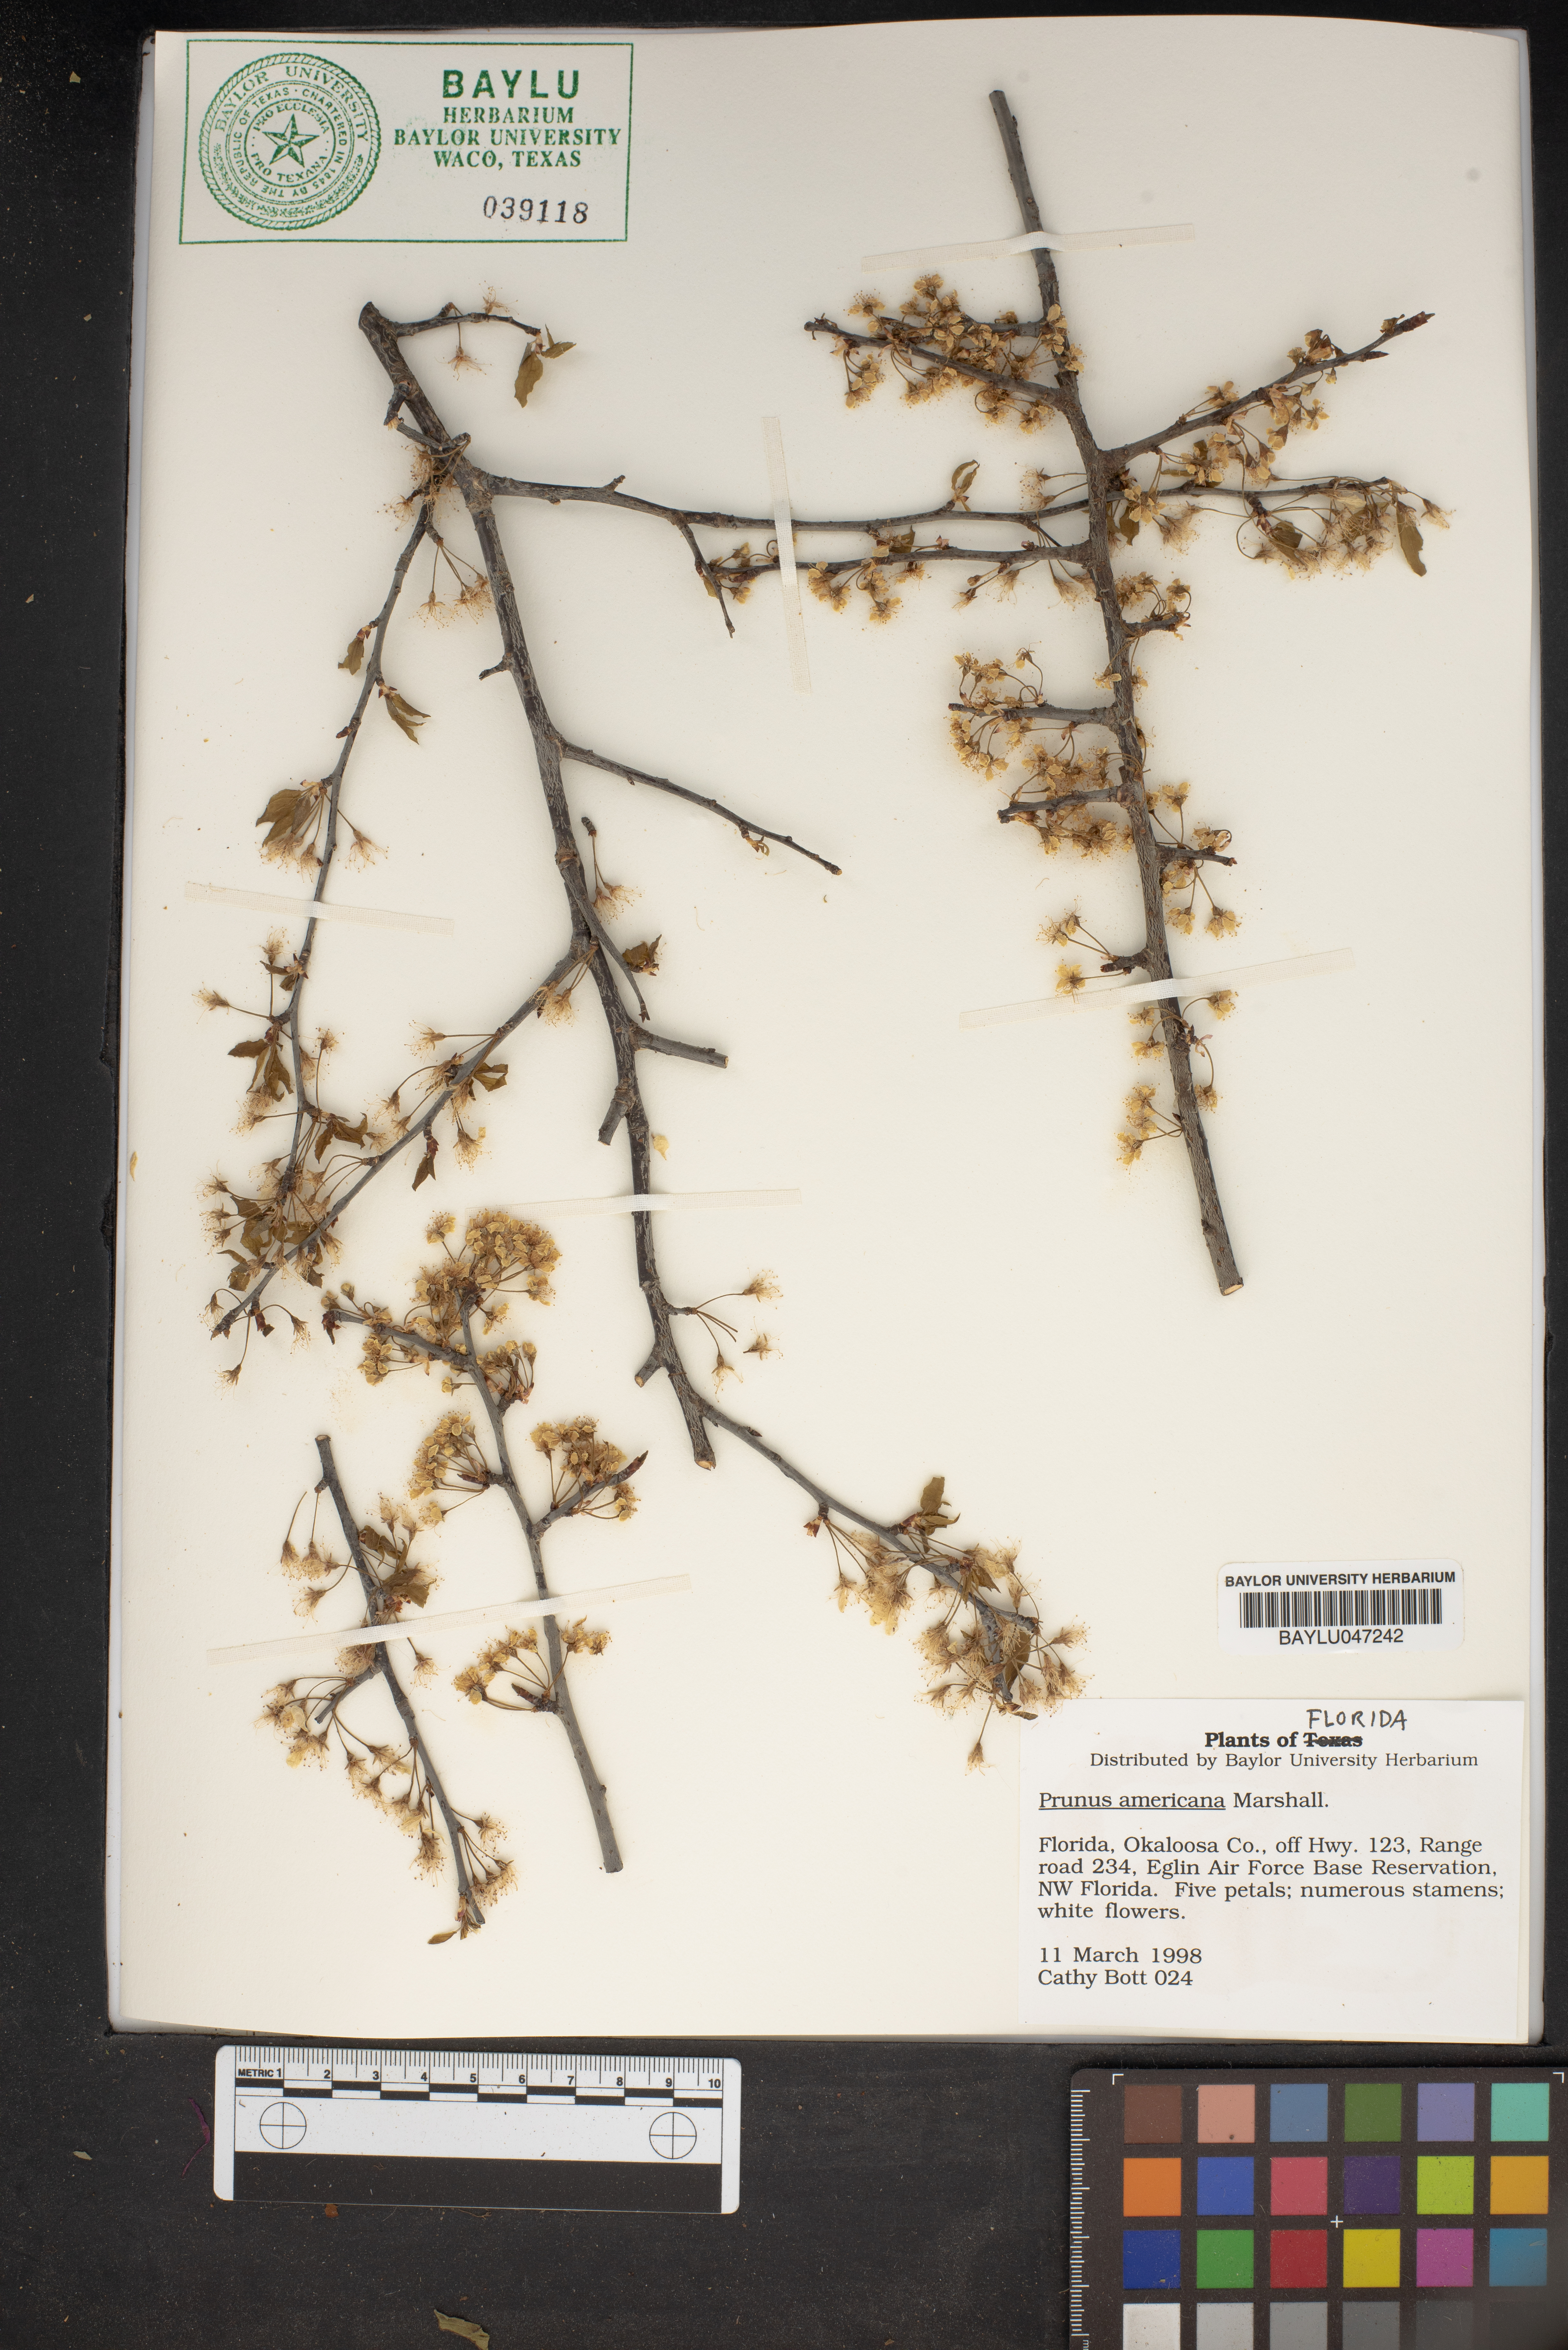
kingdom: Plantae
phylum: Tracheophyta
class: Magnoliopsida
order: Rosales
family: Rosaceae
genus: Prunus
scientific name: Prunus americana
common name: American plum
